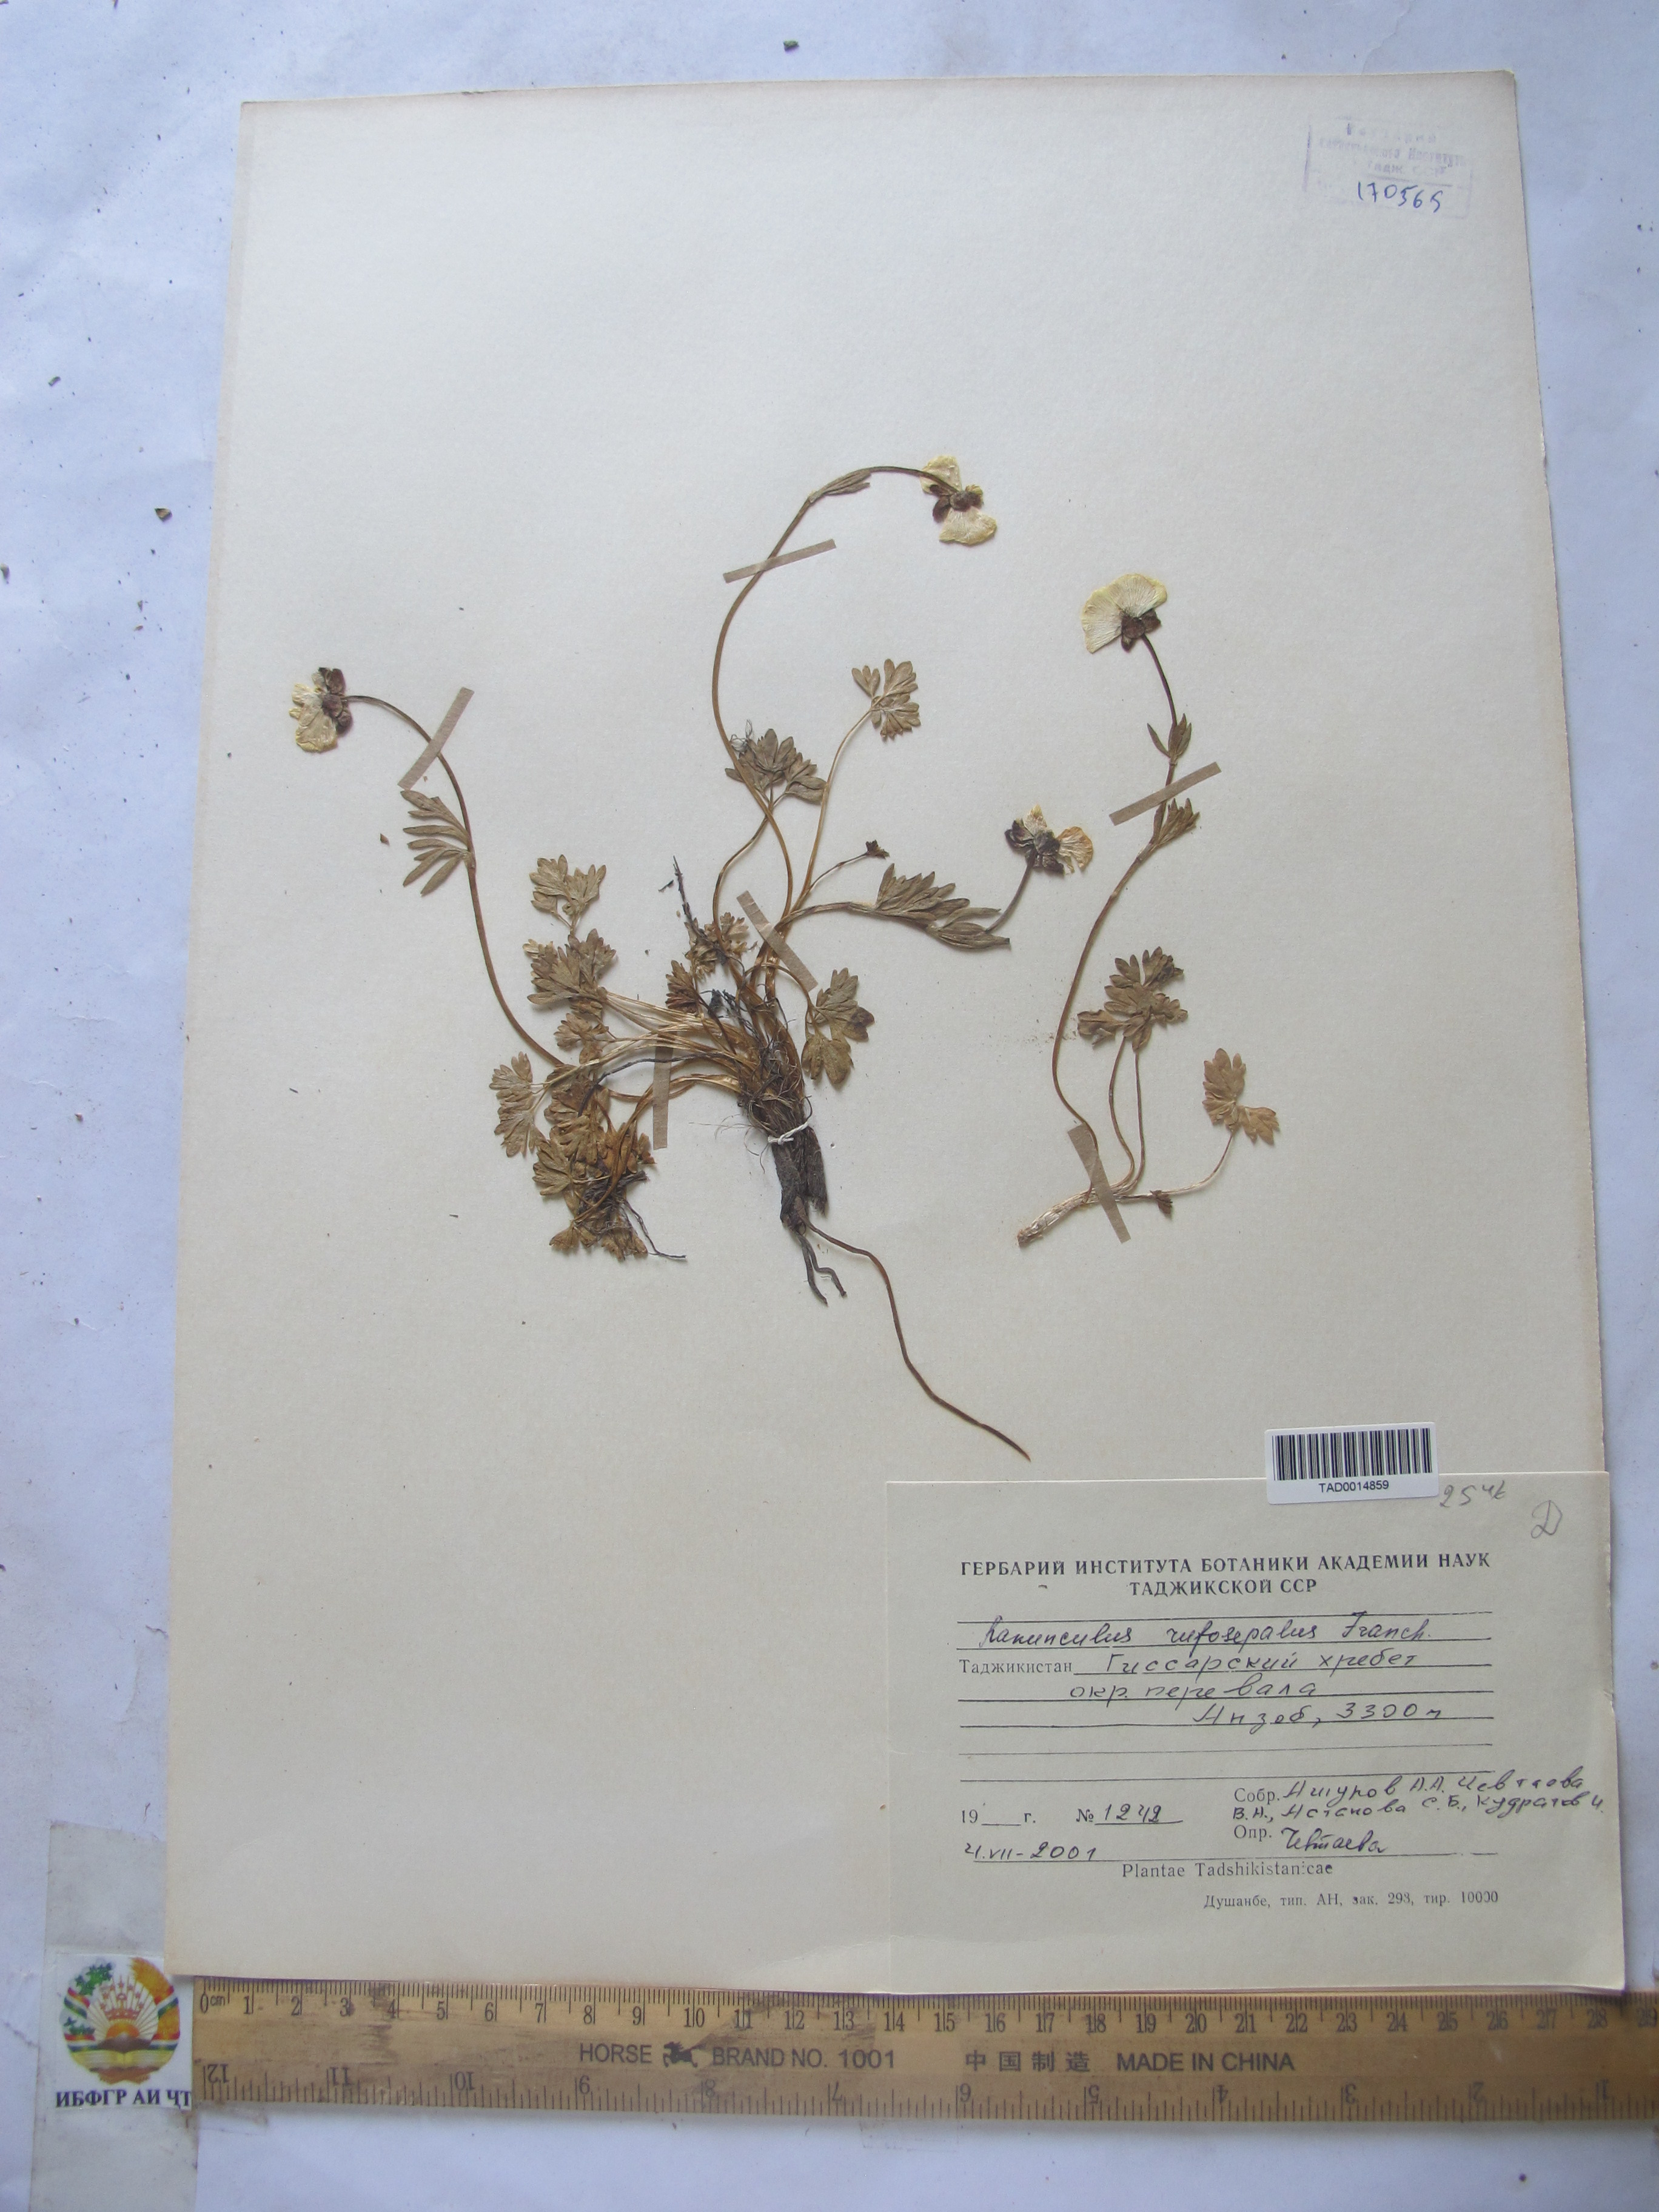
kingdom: Plantae
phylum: Tracheophyta
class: Magnoliopsida
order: Ranunculales
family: Ranunculaceae
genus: Ranunculus
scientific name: Ranunculus rufosepalus
